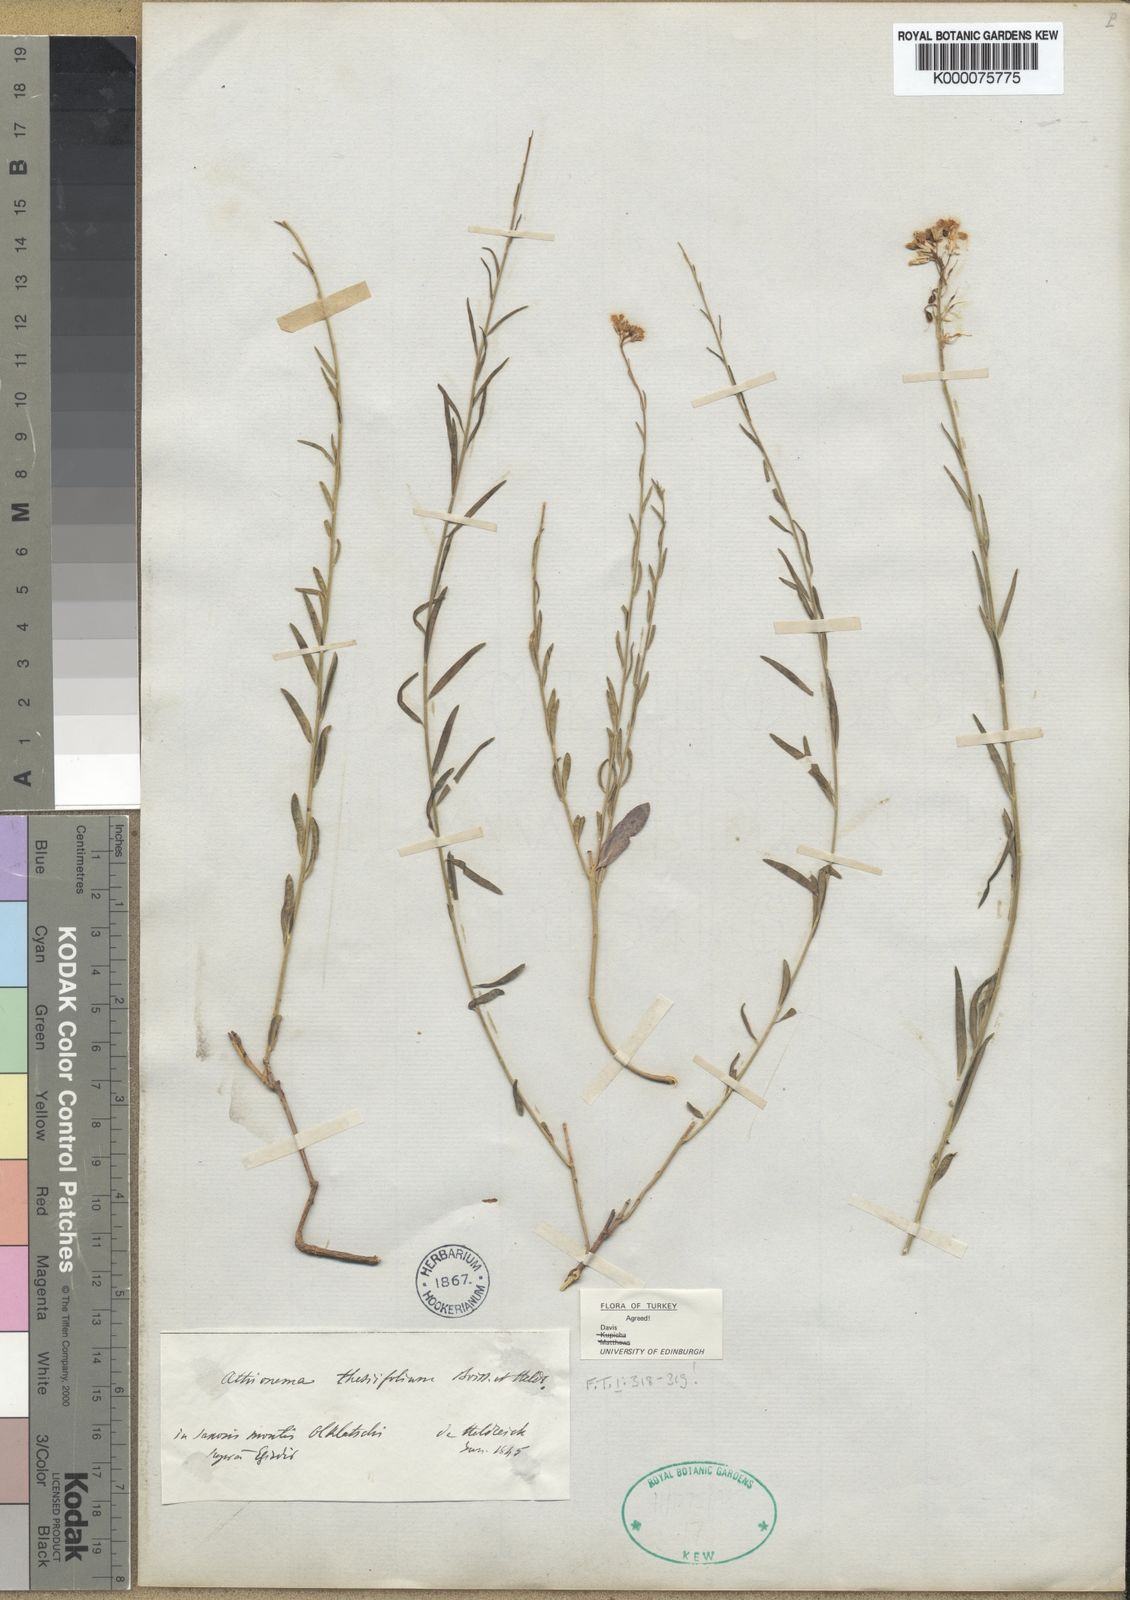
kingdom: Plantae
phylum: Tracheophyta
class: Magnoliopsida
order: Brassicales
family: Brassicaceae
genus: Aethionema
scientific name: Aethionema thesiifolium
